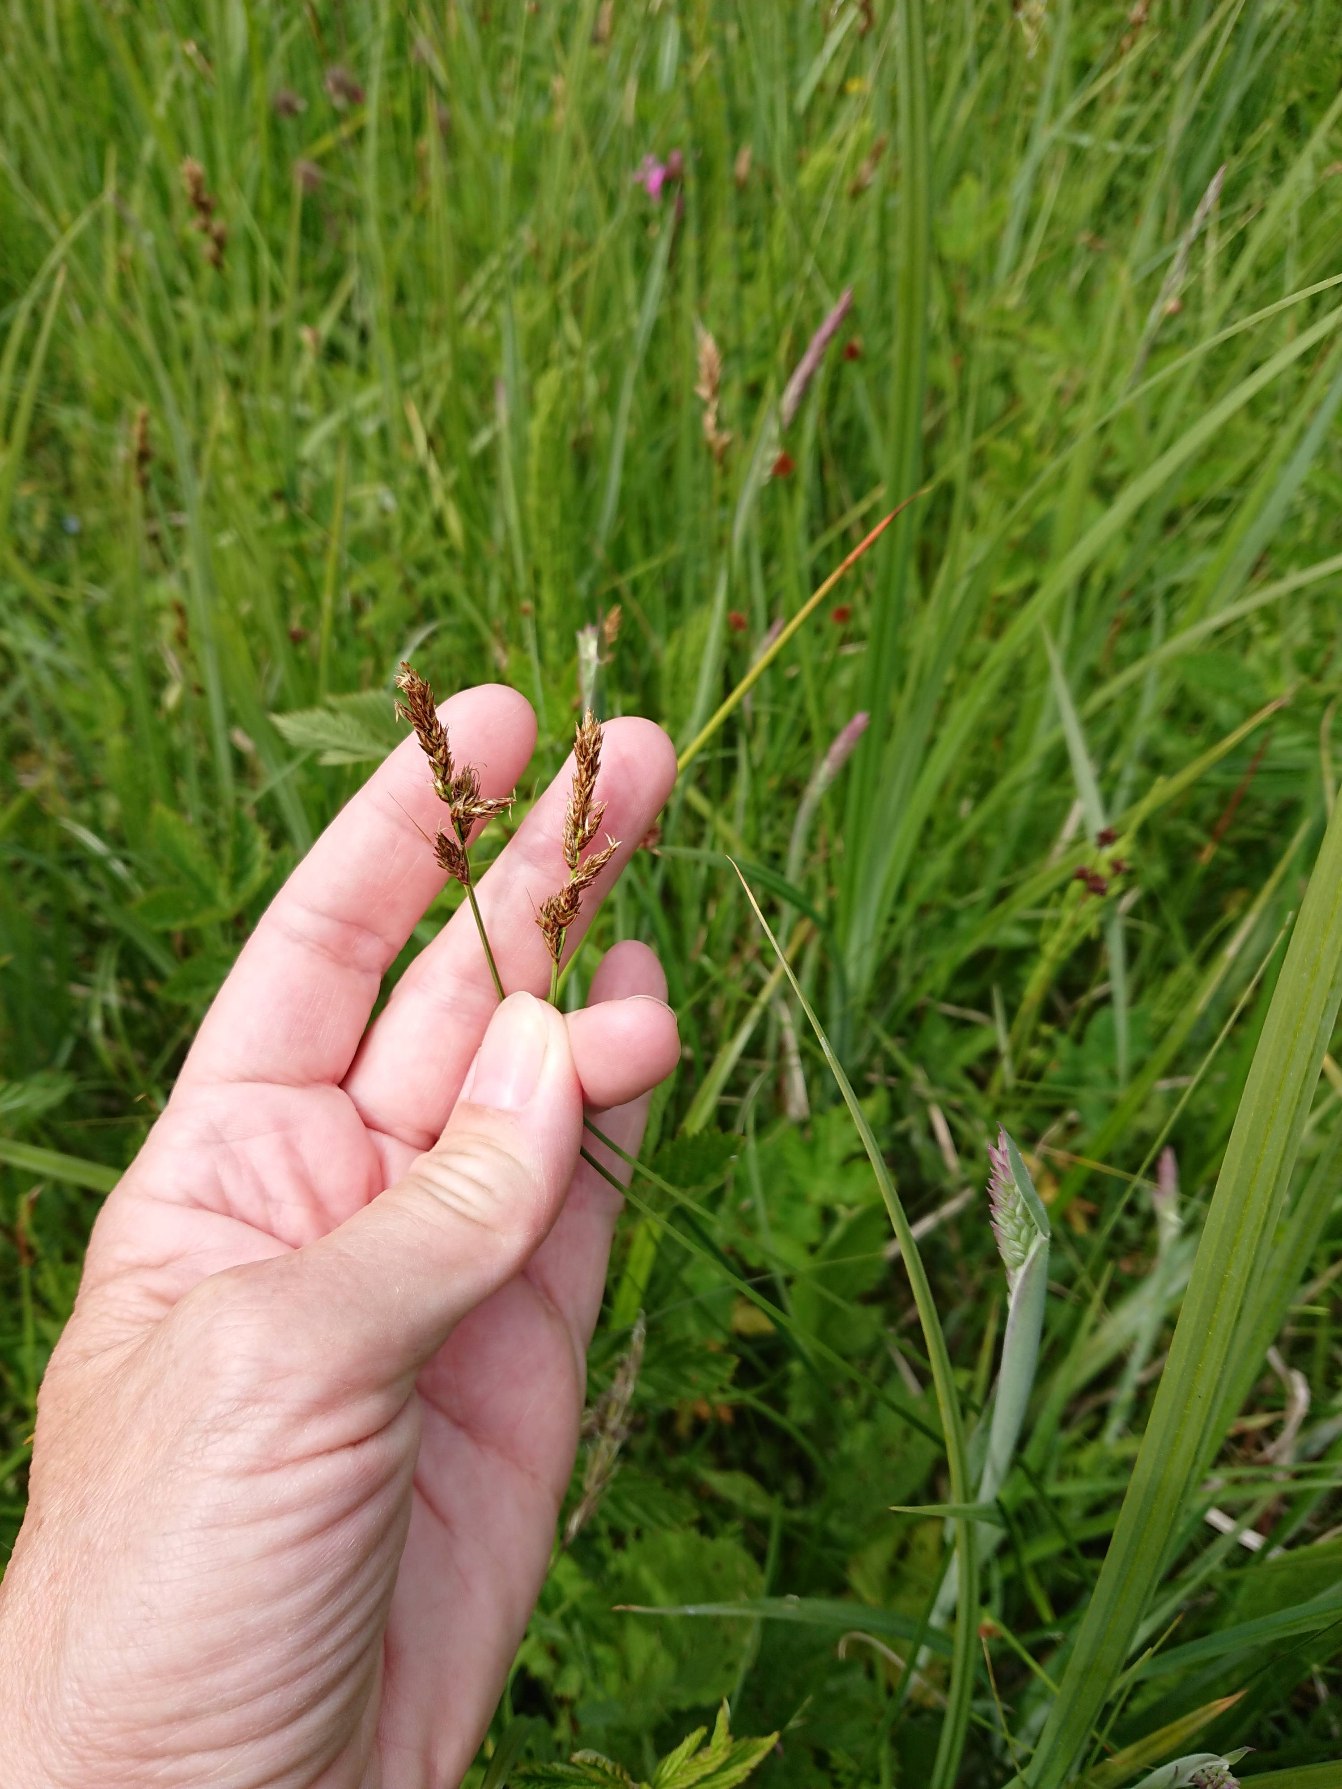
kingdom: Plantae
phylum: Tracheophyta
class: Liliopsida
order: Poales
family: Cyperaceae
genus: Carex
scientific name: Carex disticha
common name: Toradet star
